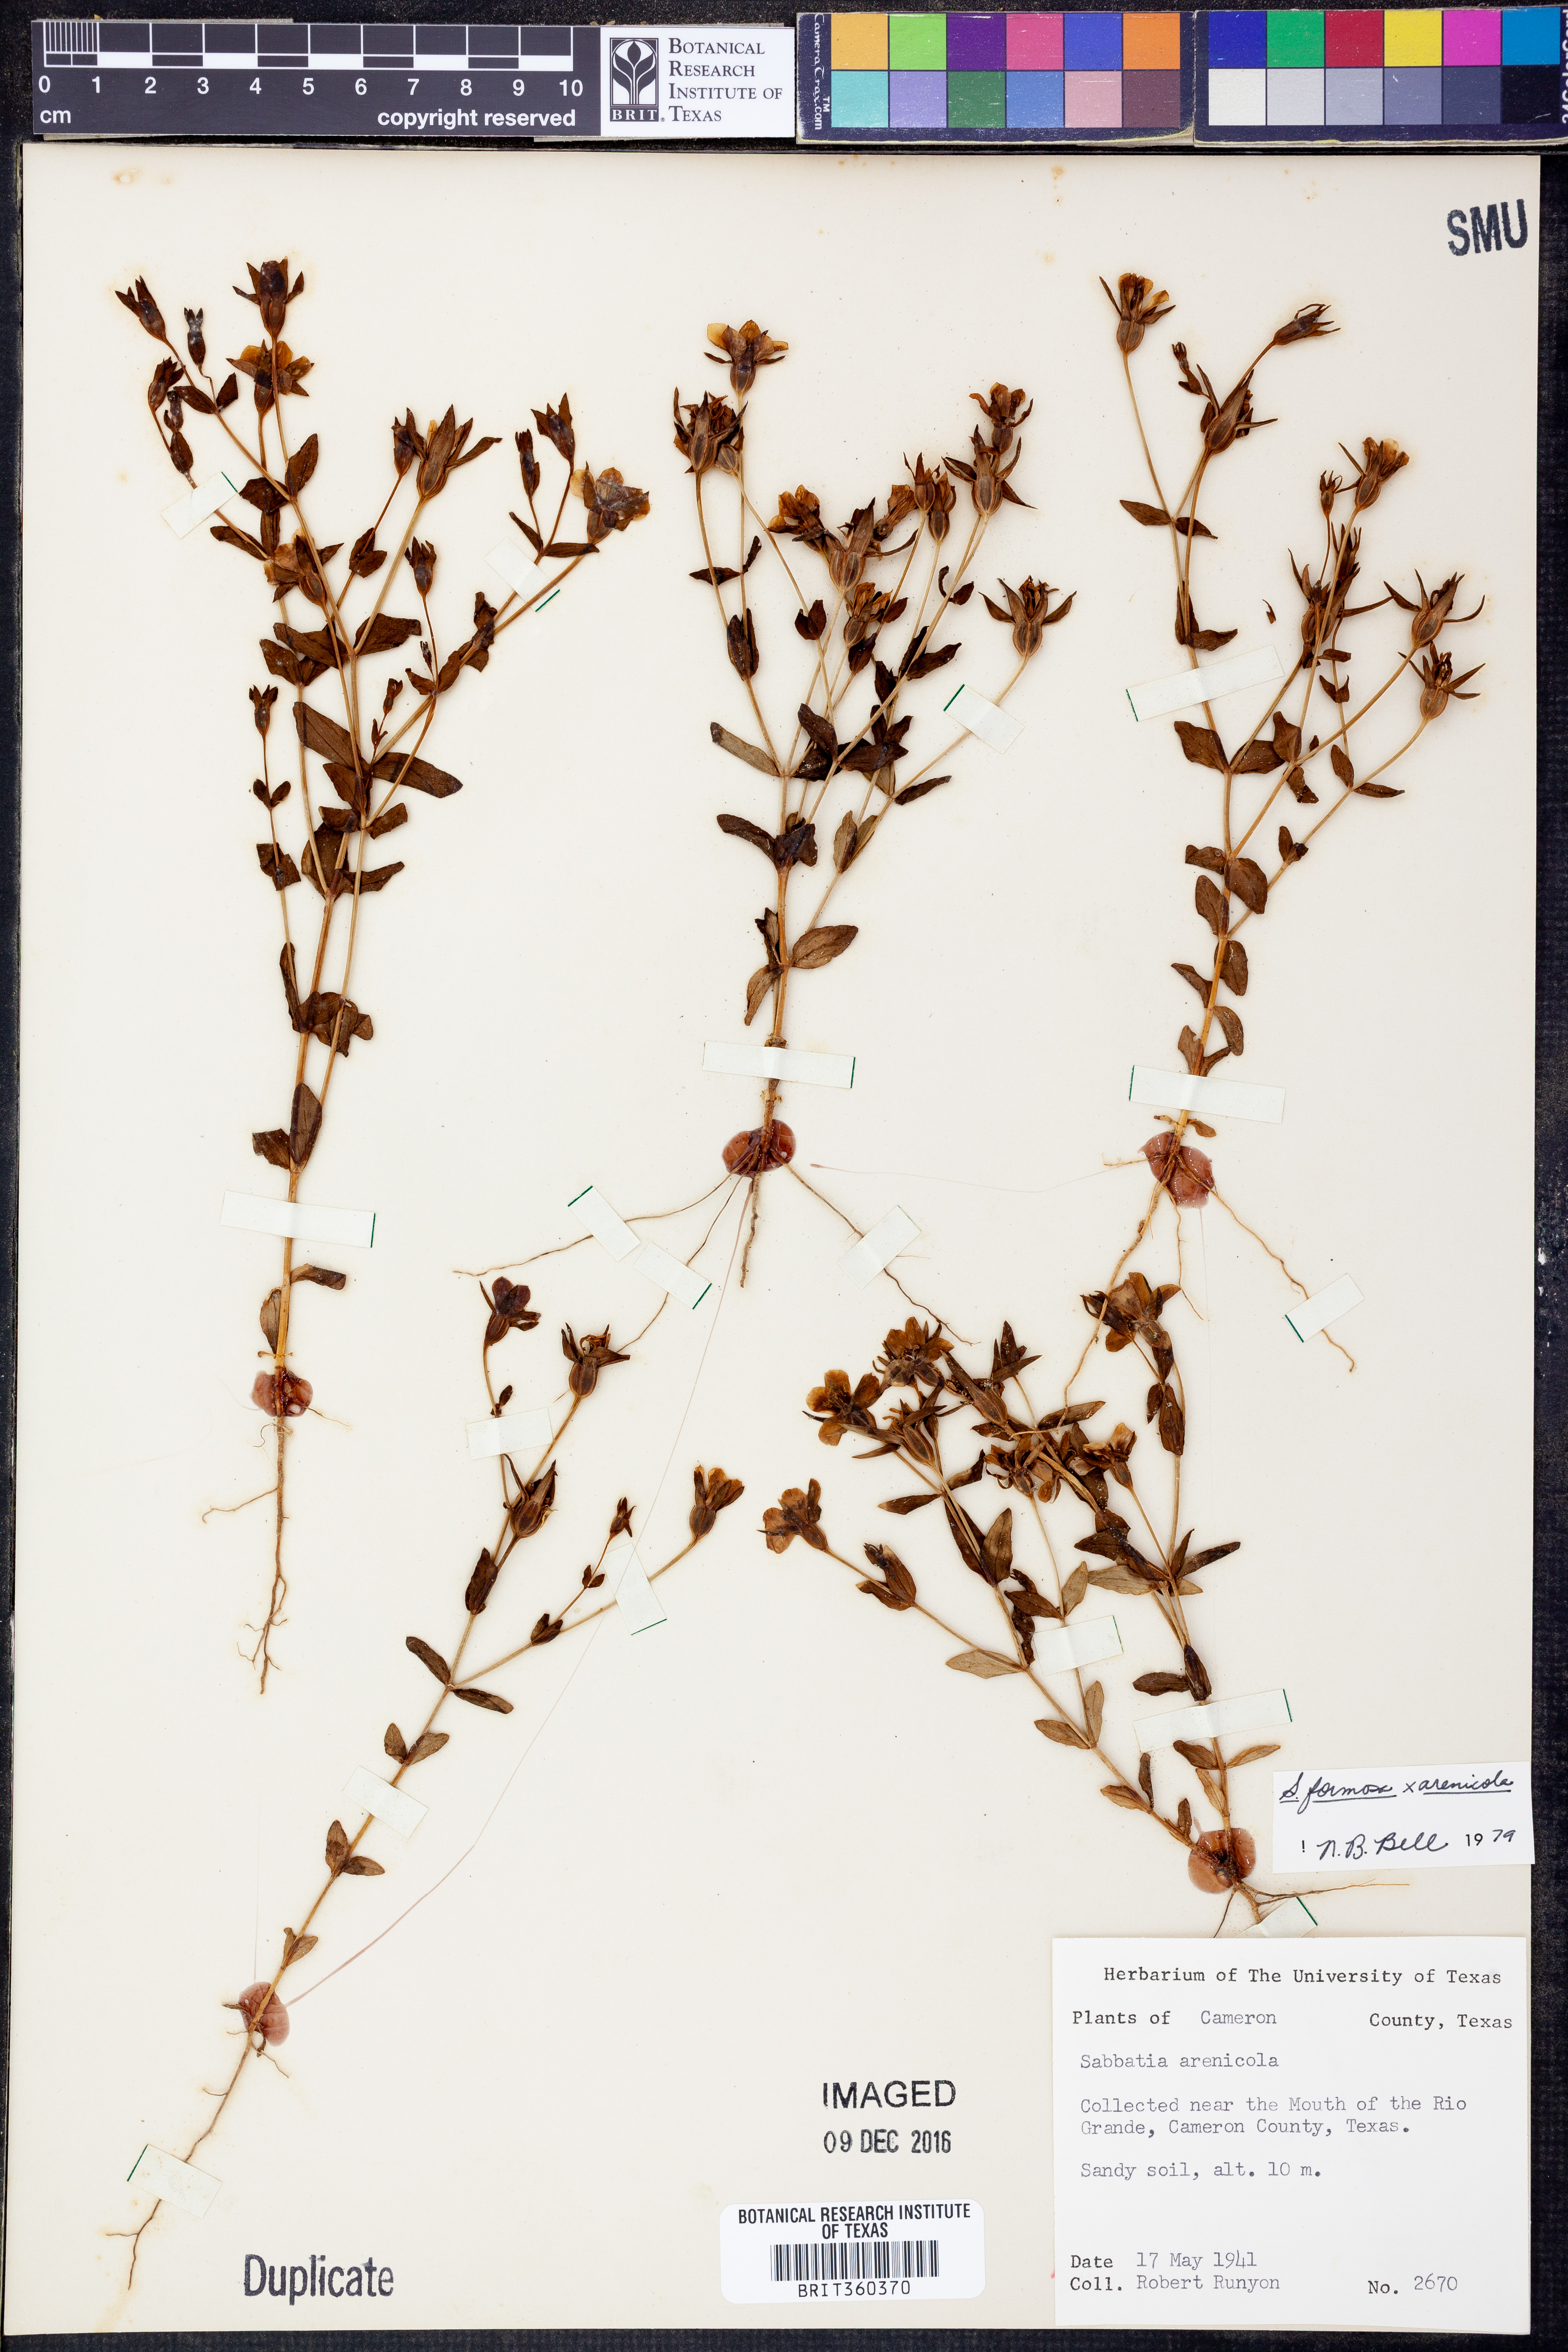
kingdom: Plantae
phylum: Tracheophyta
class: Magnoliopsida
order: Gentianales
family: Gentianaceae
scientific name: Gentianaceae
